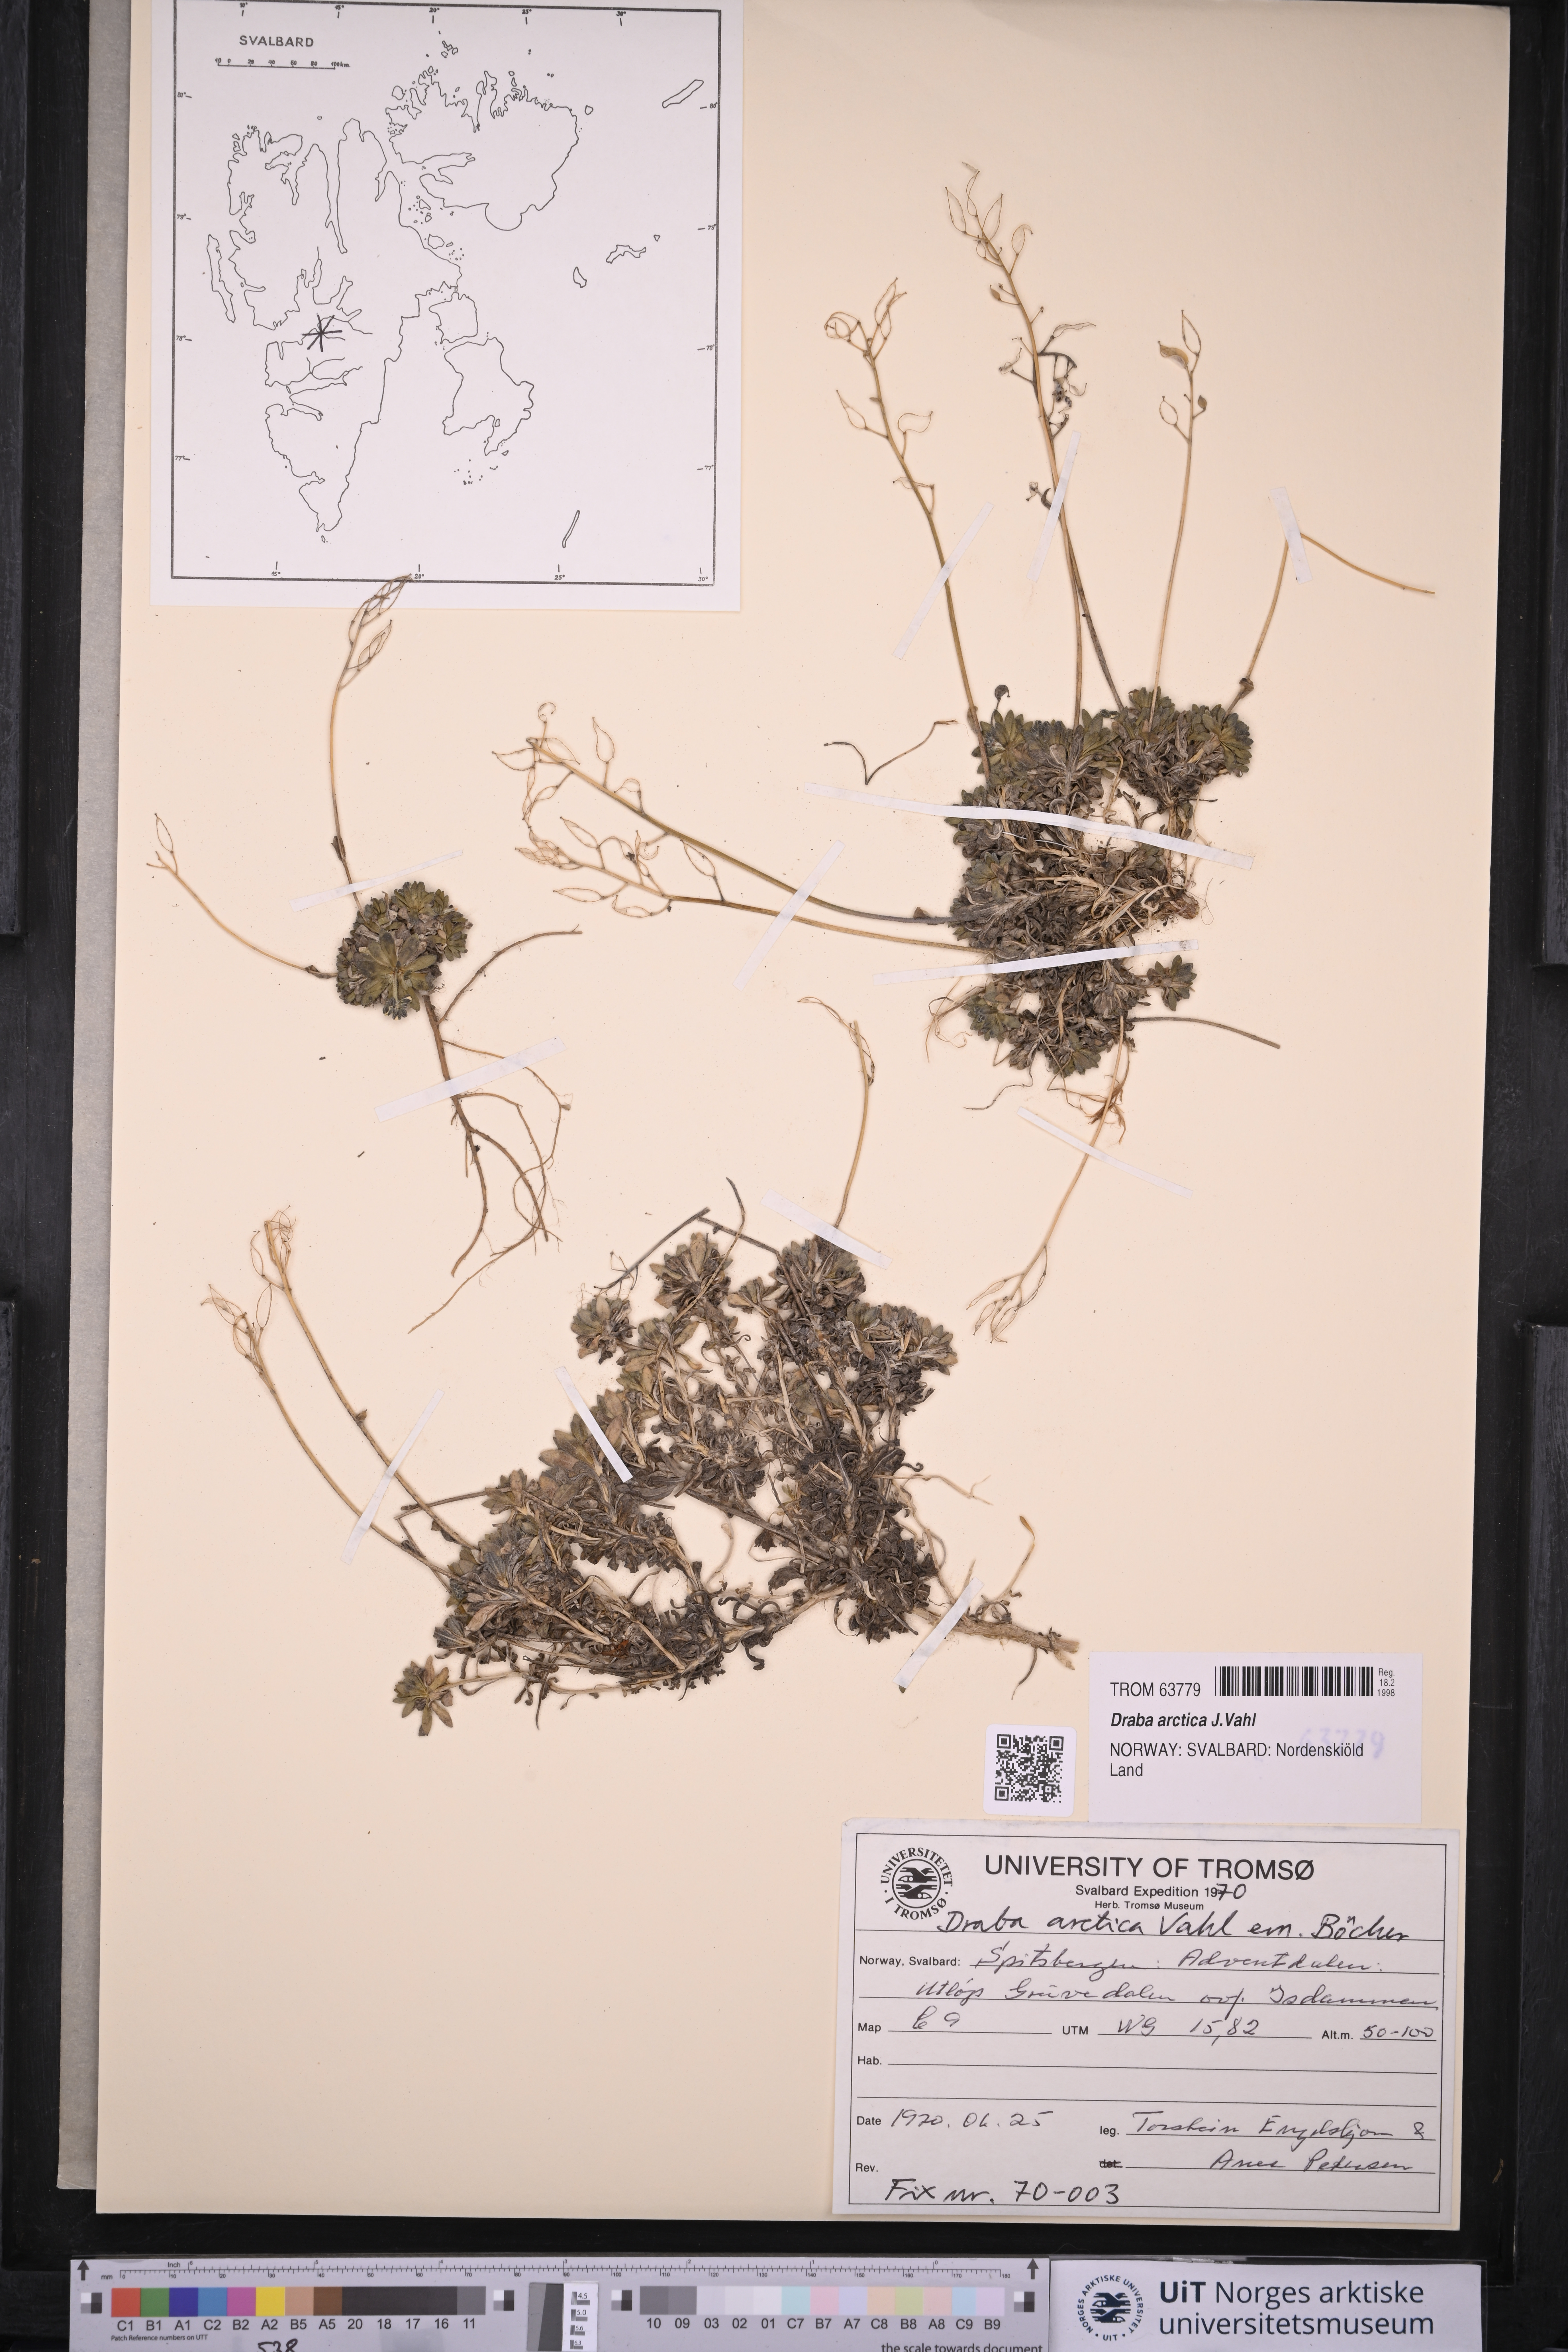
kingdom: Plantae
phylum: Tracheophyta
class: Magnoliopsida
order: Brassicales
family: Brassicaceae
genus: Draba
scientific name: Draba arctica
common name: Arctic draba
